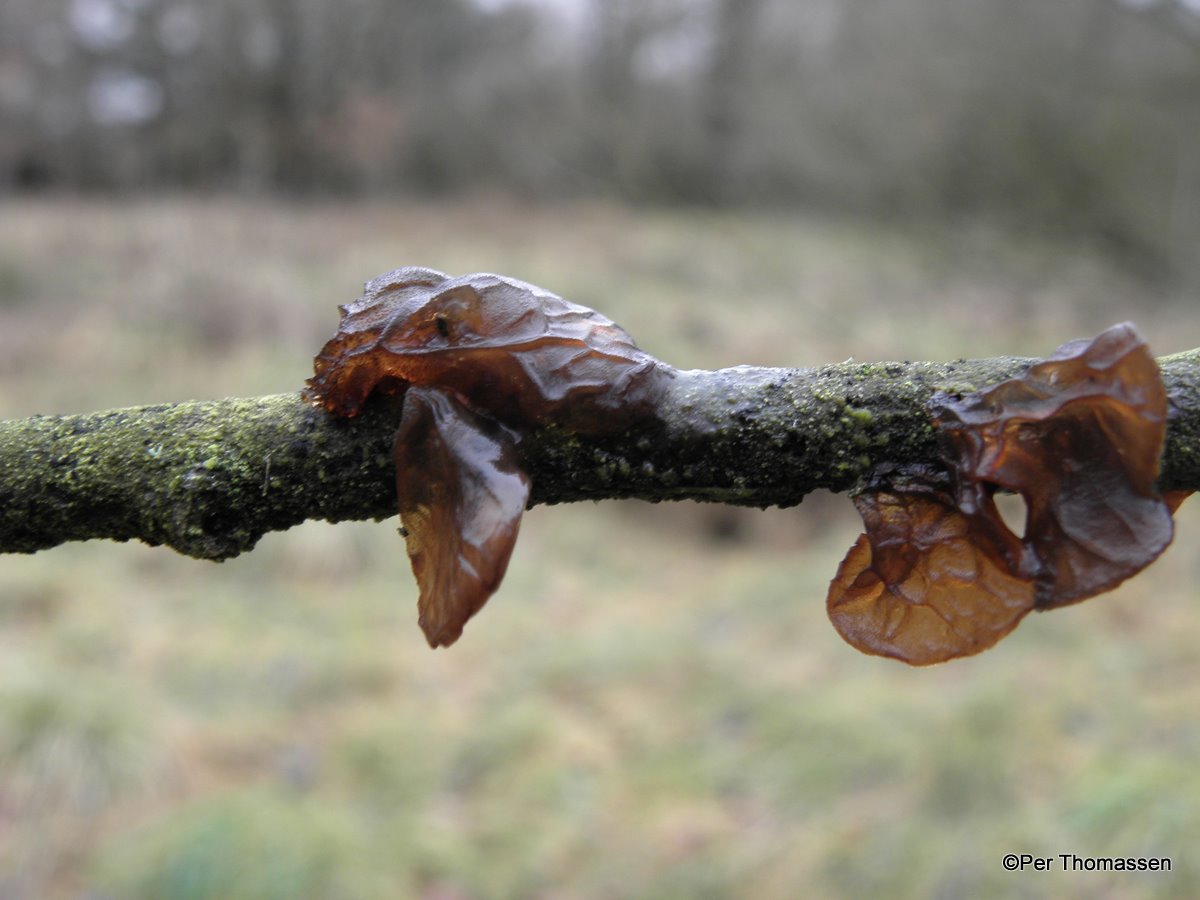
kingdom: Fungi
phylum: Basidiomycota
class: Agaricomycetes
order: Auriculariales
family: Auriculariaceae
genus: Exidia
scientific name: Exidia recisa
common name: pile-bævretop
